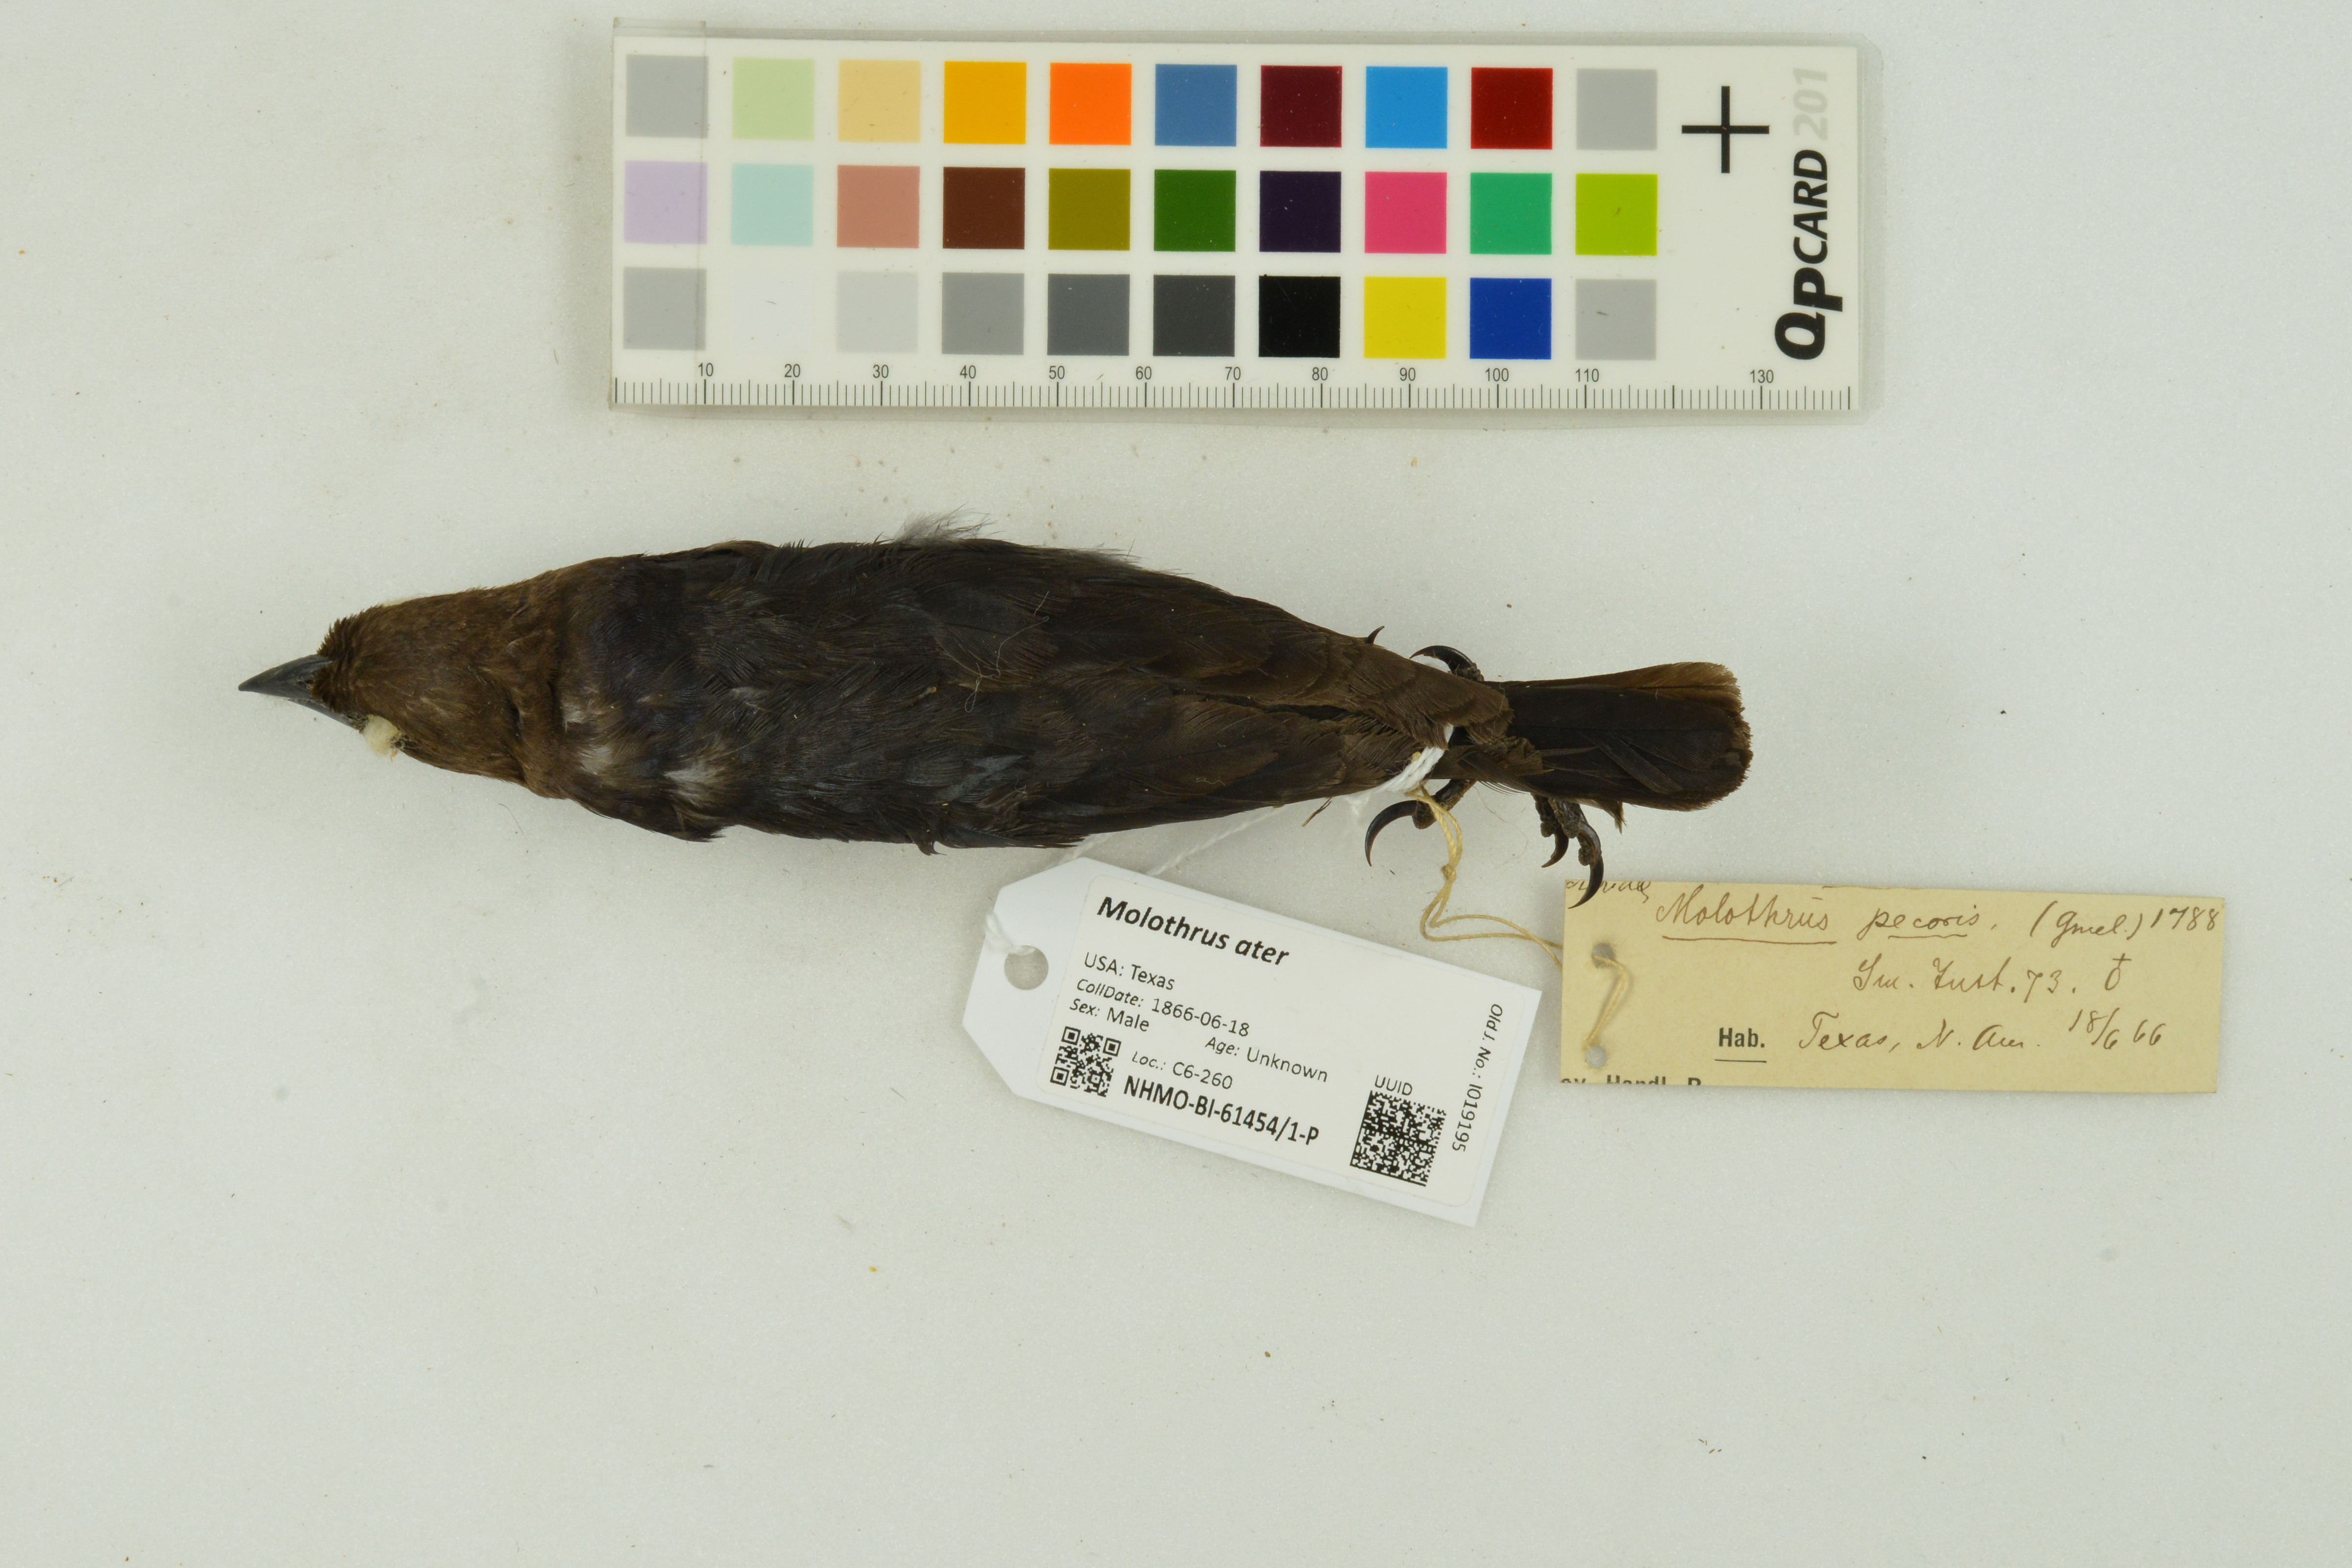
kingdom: Animalia
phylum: Chordata
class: Aves
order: Passeriformes
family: Icteridae
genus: Molothrus
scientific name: Molothrus ater
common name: Brown-headed cowbird
